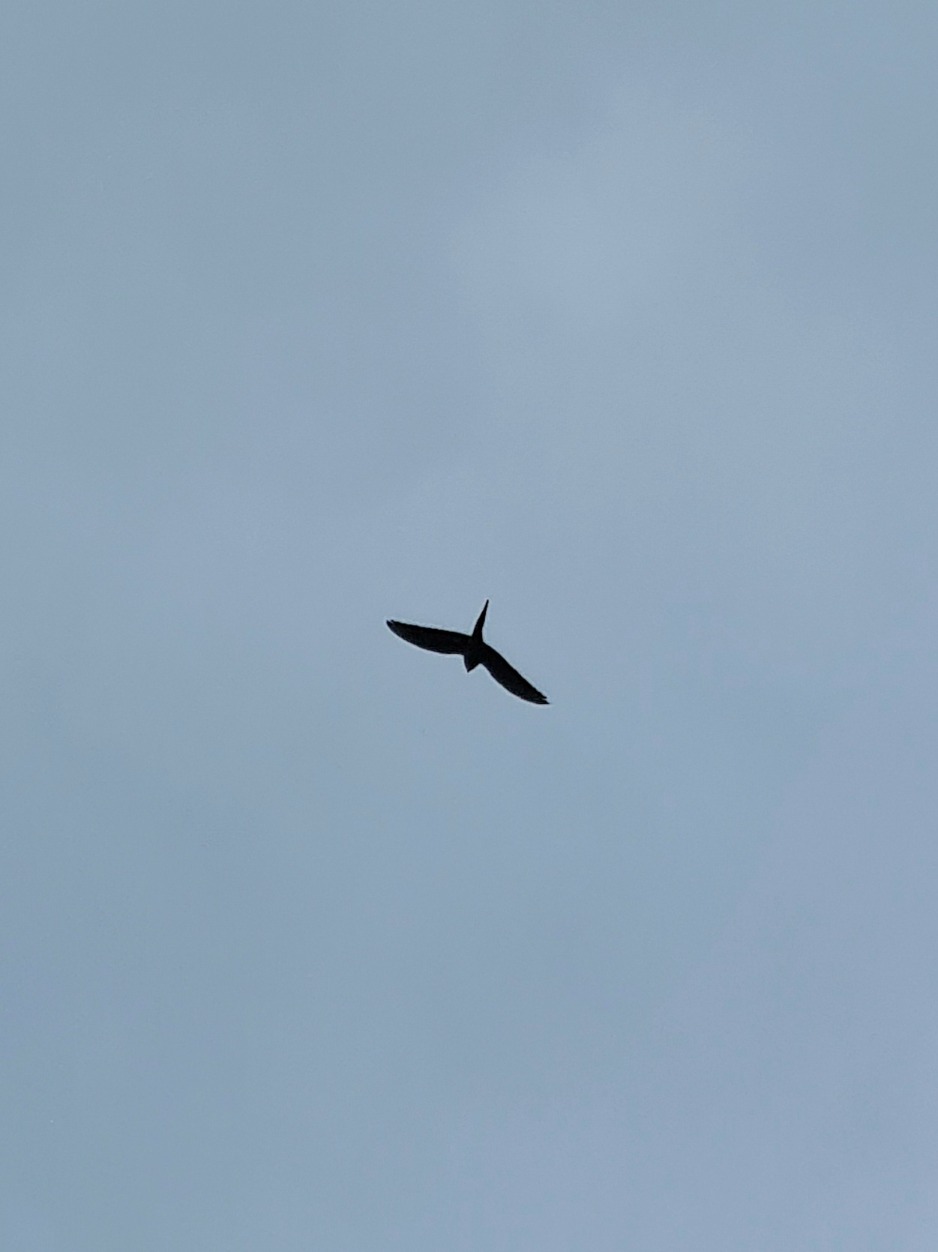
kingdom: Animalia
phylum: Chordata
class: Aves
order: Psittaciformes
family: Psittacidae
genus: Nymphicus
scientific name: Nymphicus hollandicus
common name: Nymfeparakit
